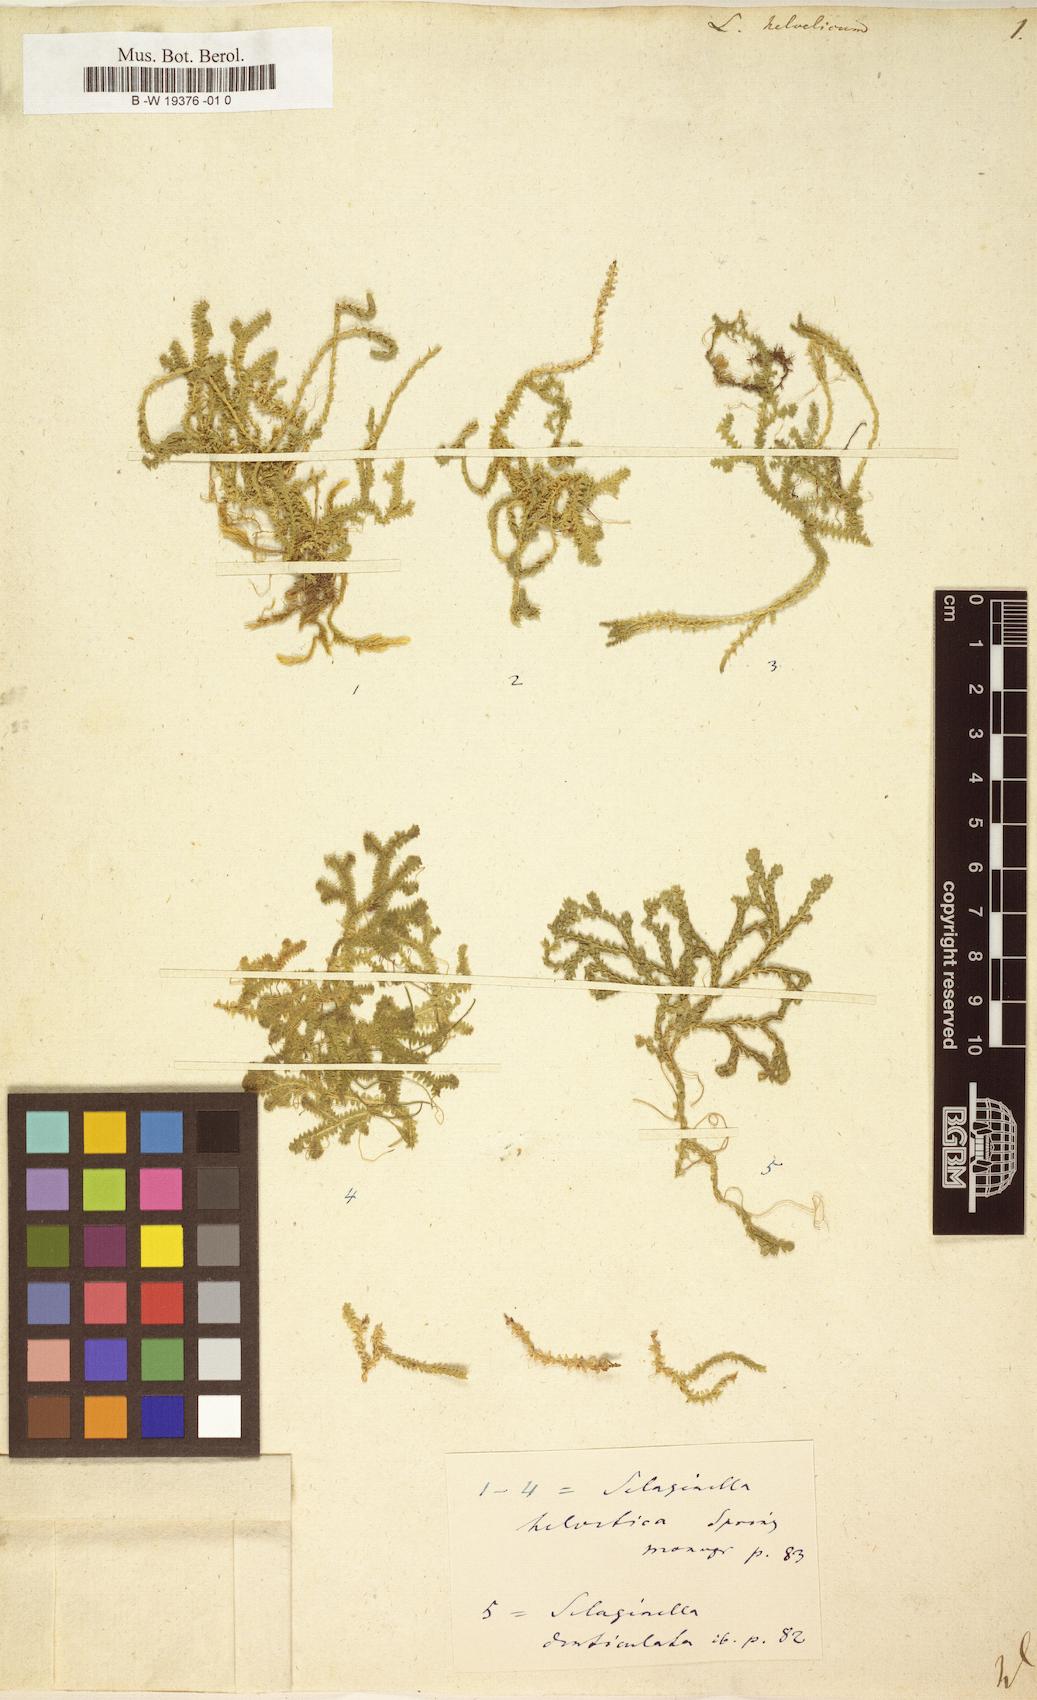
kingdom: Plantae
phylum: Tracheophyta
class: Lycopodiopsida
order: Selaginellales
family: Selaginellaceae
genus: Selaginella
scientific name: Selaginella helvetica
